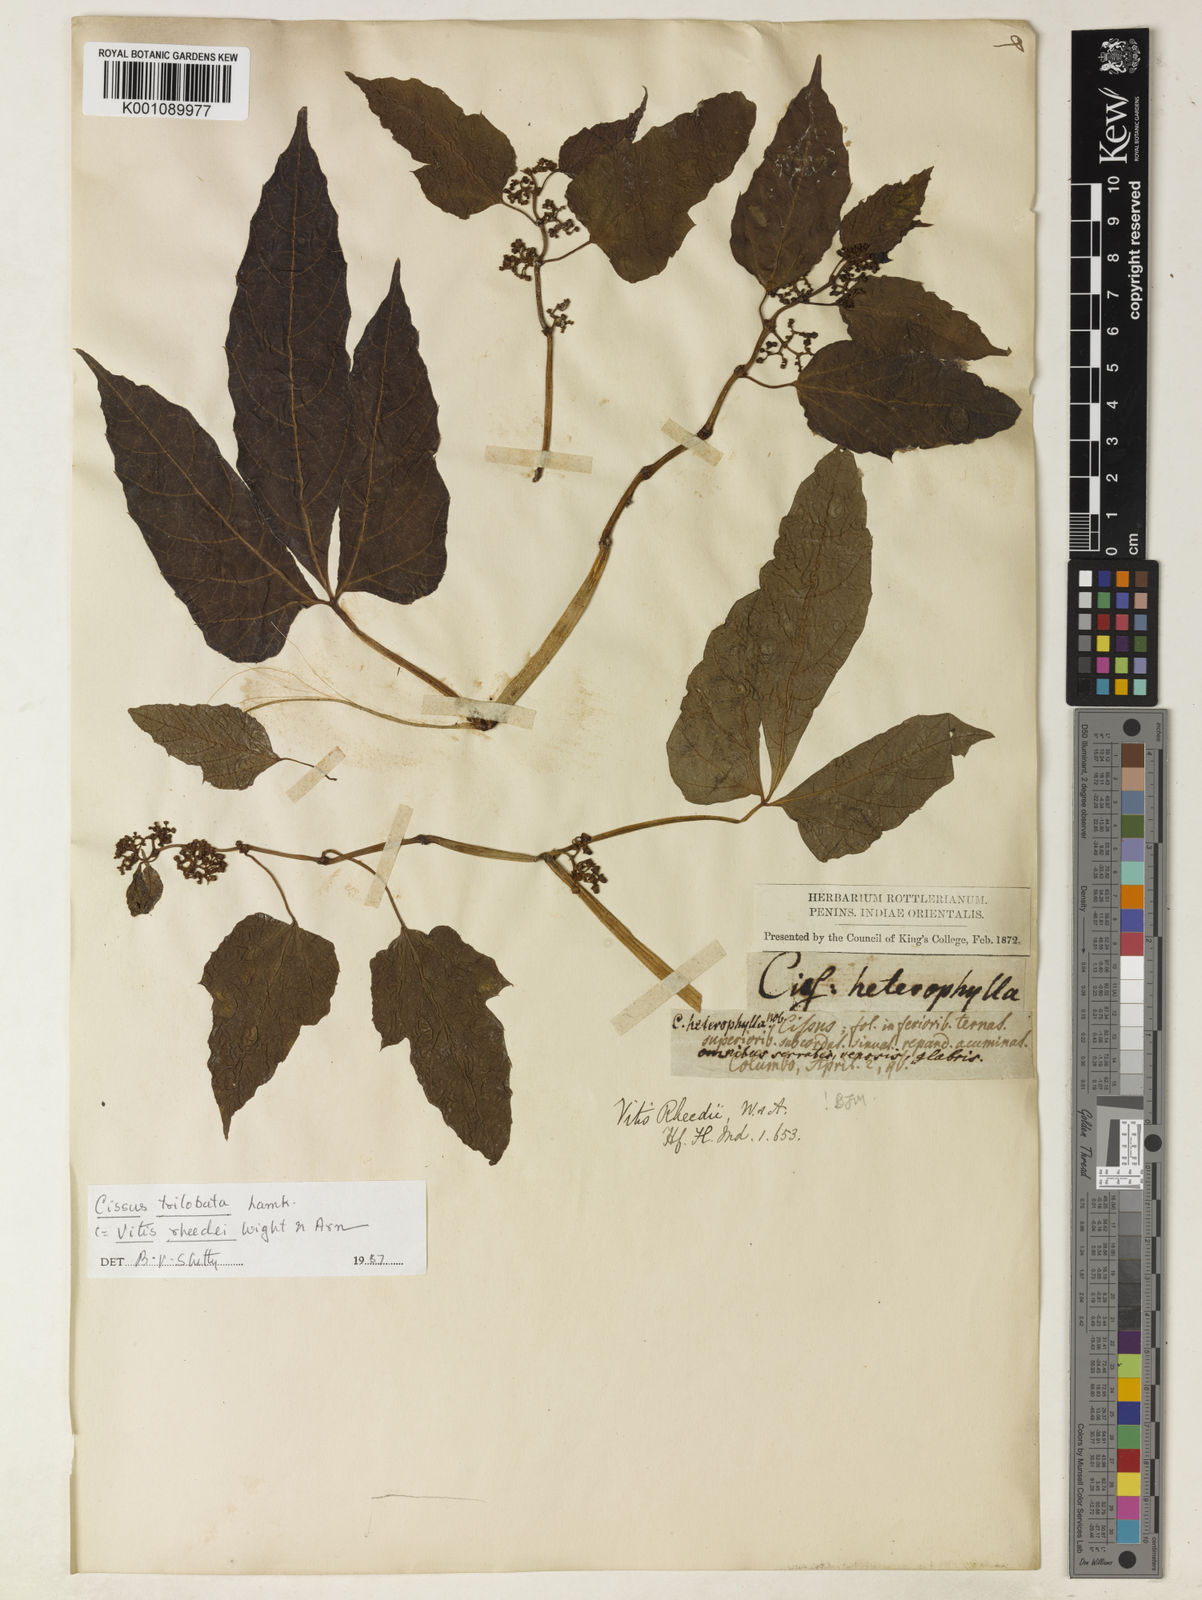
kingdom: Plantae
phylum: Tracheophyta
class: Magnoliopsida
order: Vitales
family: Vitaceae
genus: Cissus
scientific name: Cissus heterophylla
